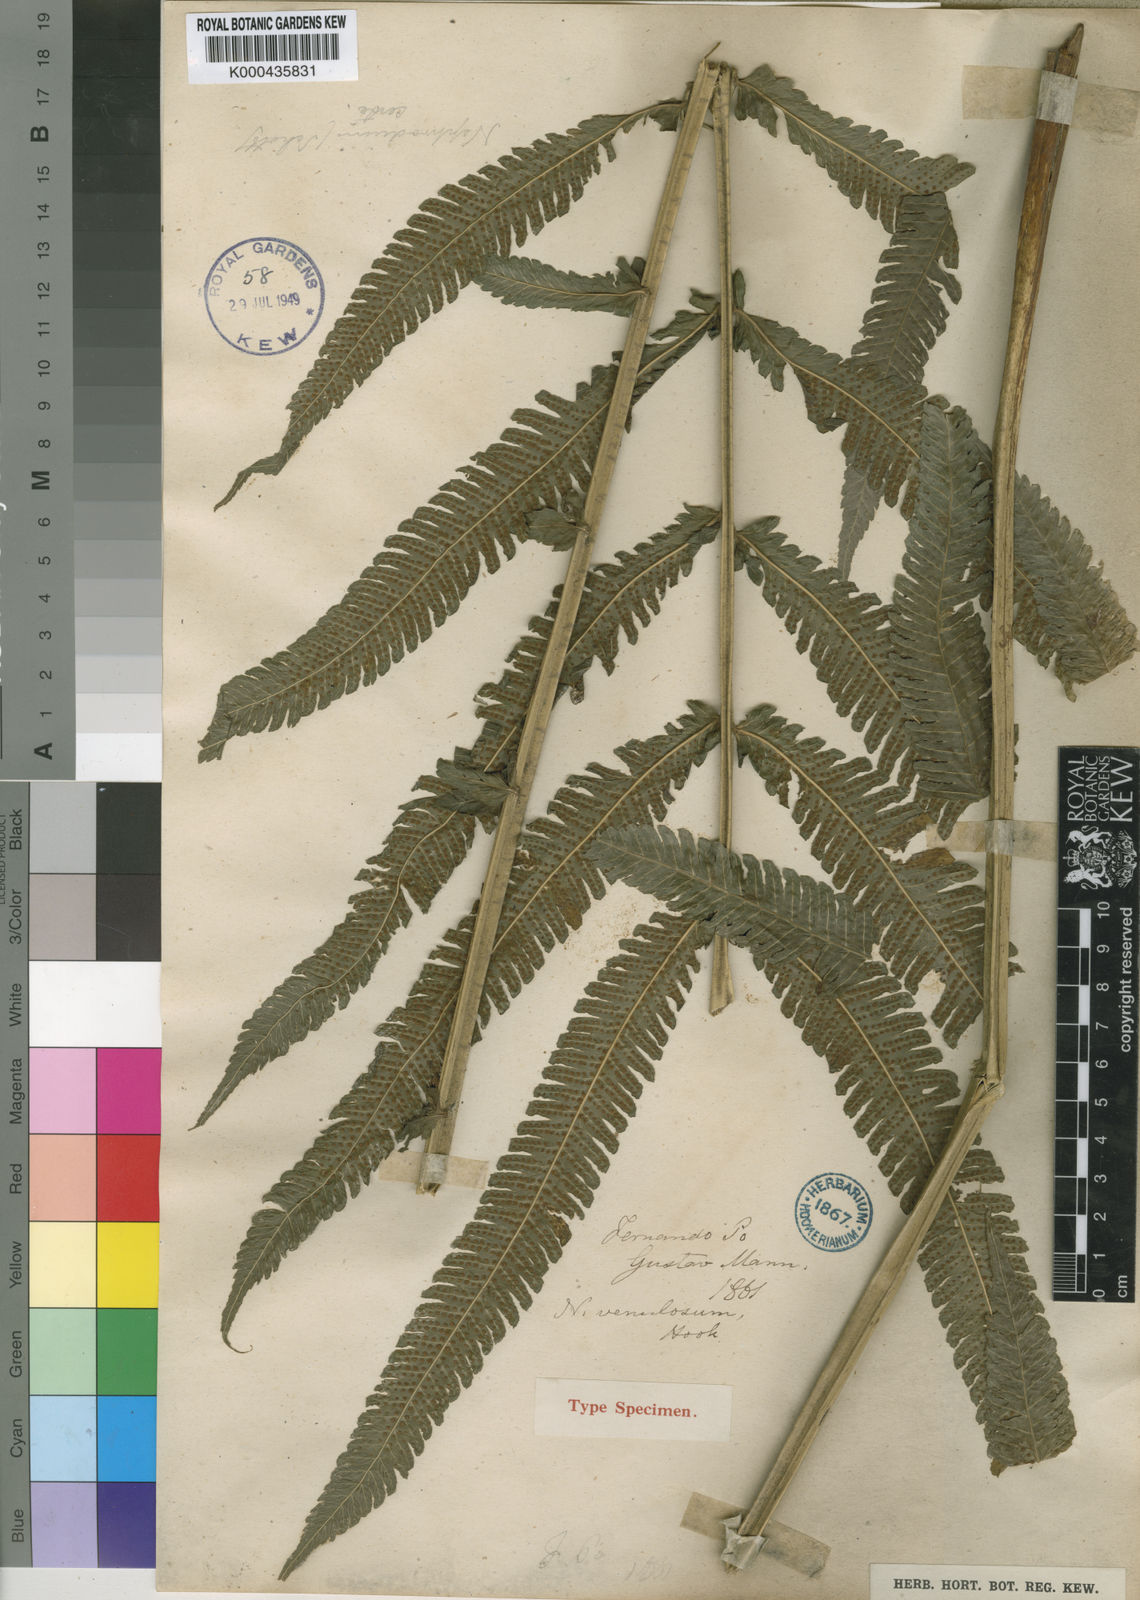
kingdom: Plantae
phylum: Tracheophyta
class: Polypodiopsida
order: Polypodiales
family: Thelypteridaceae
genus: Pneumatopteris
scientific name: Pneumatopteris venulosa
